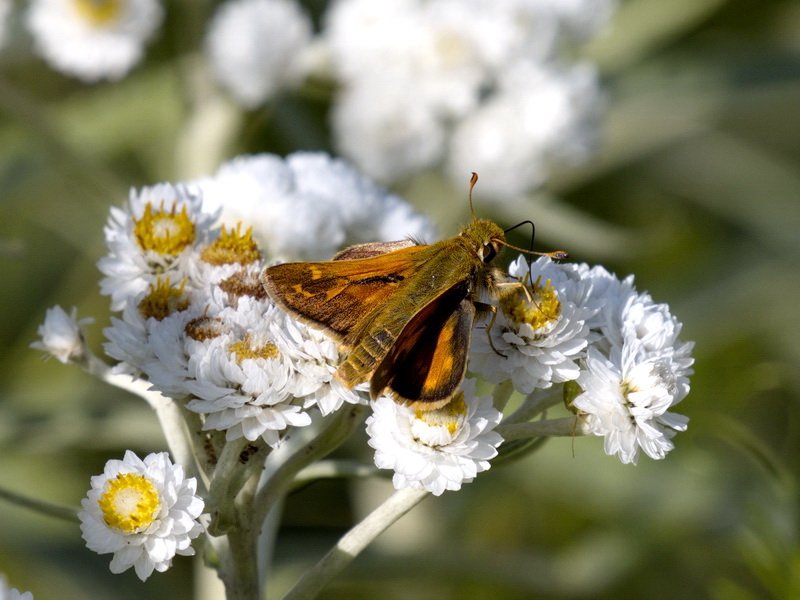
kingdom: Animalia
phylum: Arthropoda
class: Insecta
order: Lepidoptera
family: Hesperiidae
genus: Hesperia
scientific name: Hesperia comma
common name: Common Branded Skipper
